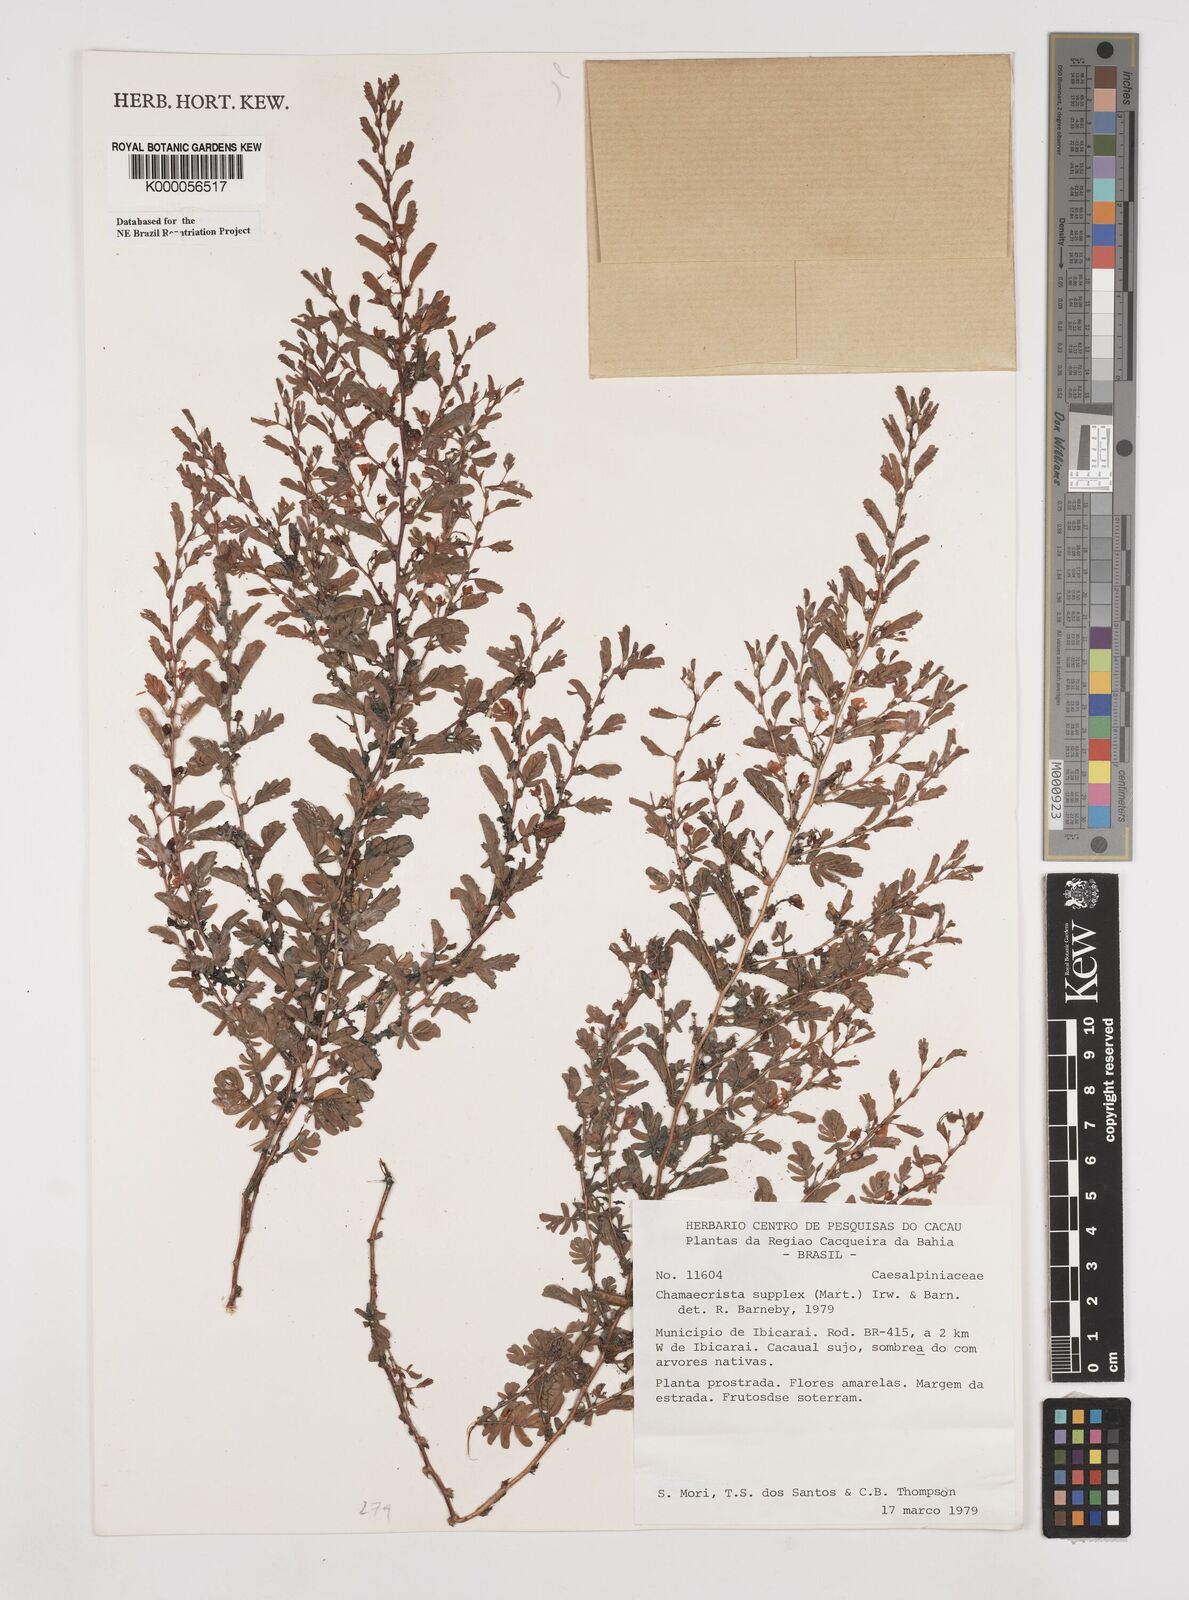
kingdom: Plantae
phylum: Tracheophyta
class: Magnoliopsida
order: Fabales
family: Fabaceae
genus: Chamaecrista
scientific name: Chamaecrista supplex
